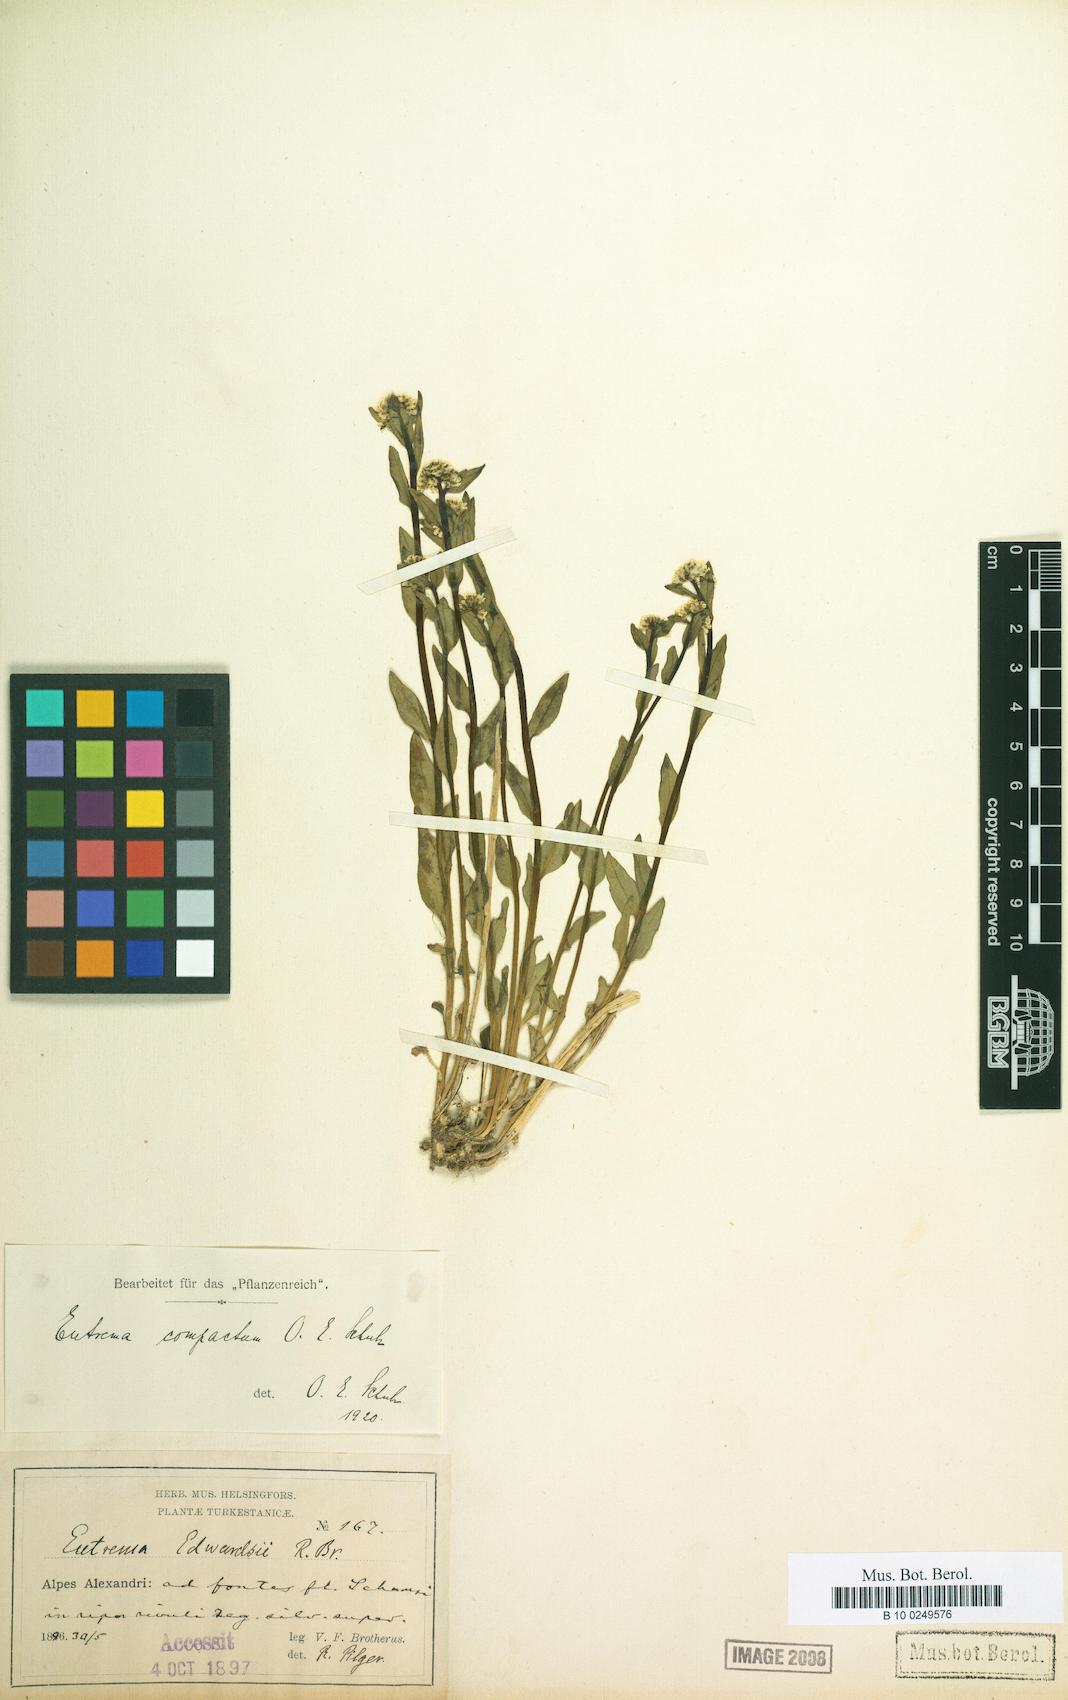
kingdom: Plantae
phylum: Tracheophyta
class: Magnoliopsida
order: Brassicales
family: Brassicaceae
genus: Eutrema
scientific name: Eutrema heterophyllum
